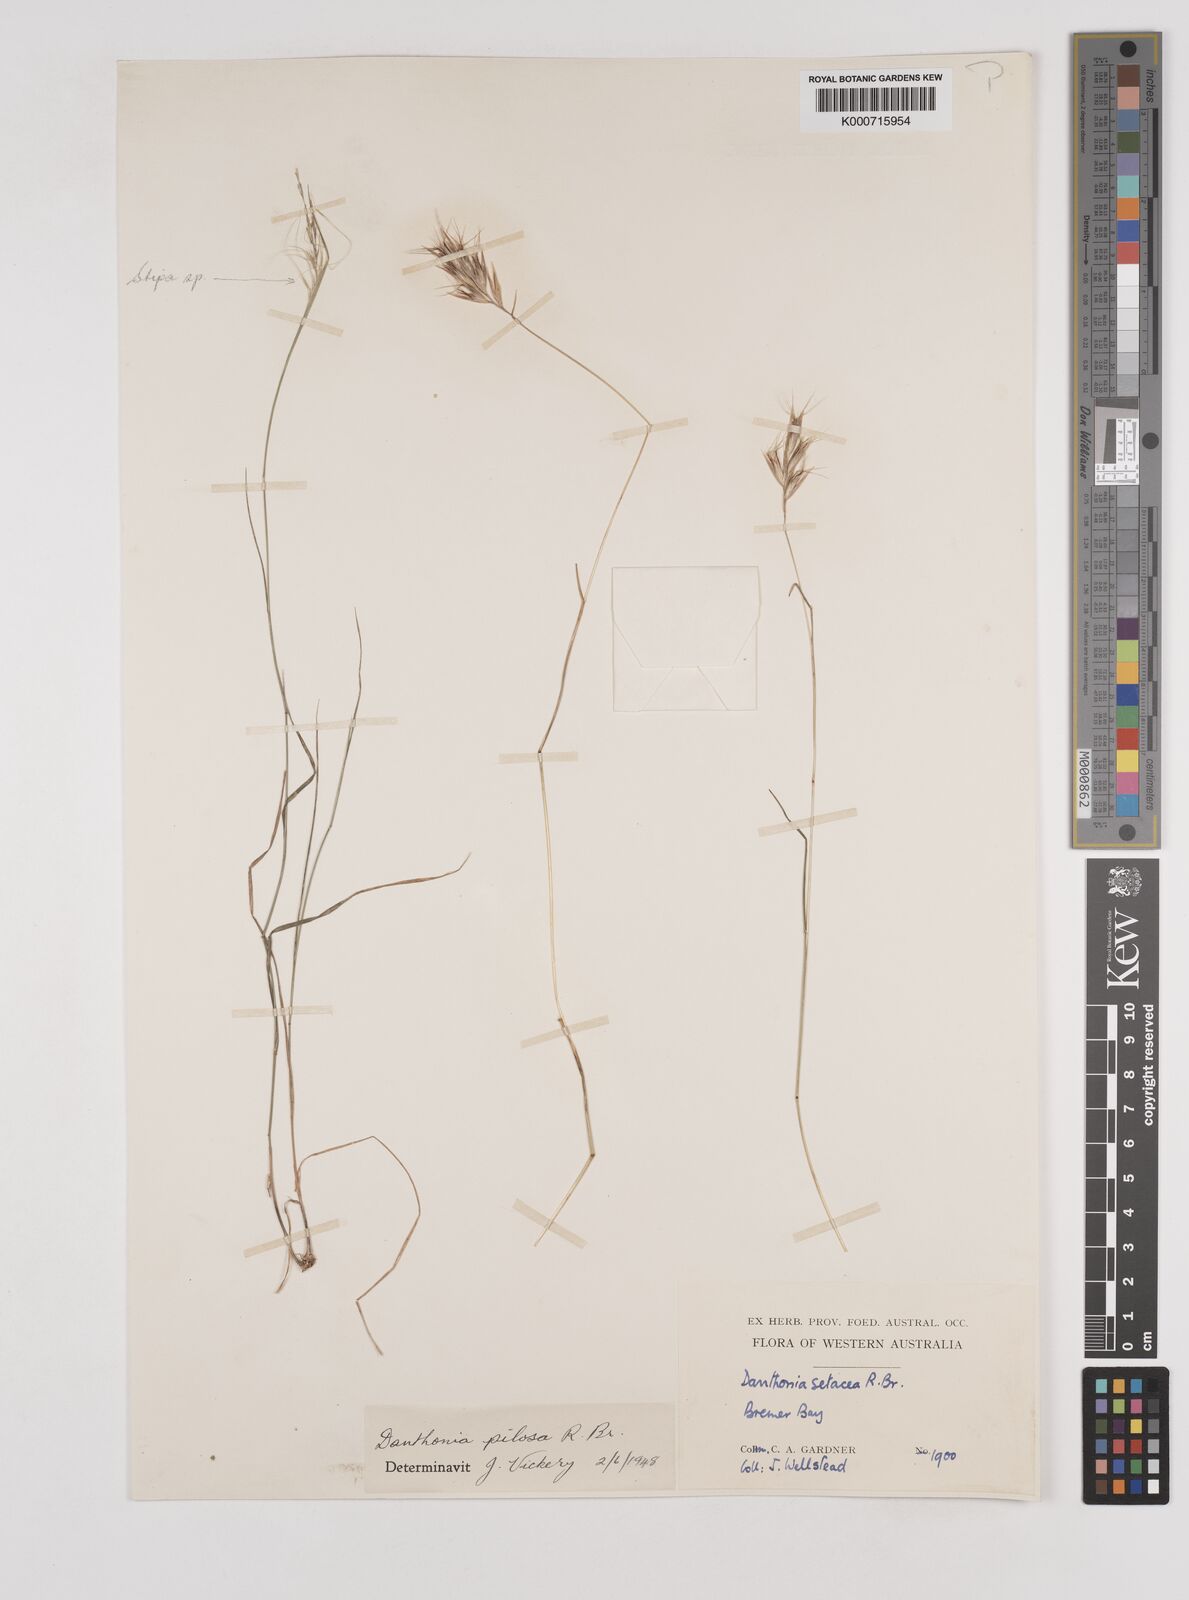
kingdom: Plantae
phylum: Tracheophyta
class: Liliopsida
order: Poales
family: Poaceae
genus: Rytidosperma
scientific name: Rytidosperma pilosum
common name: Hairy wallaby grass
